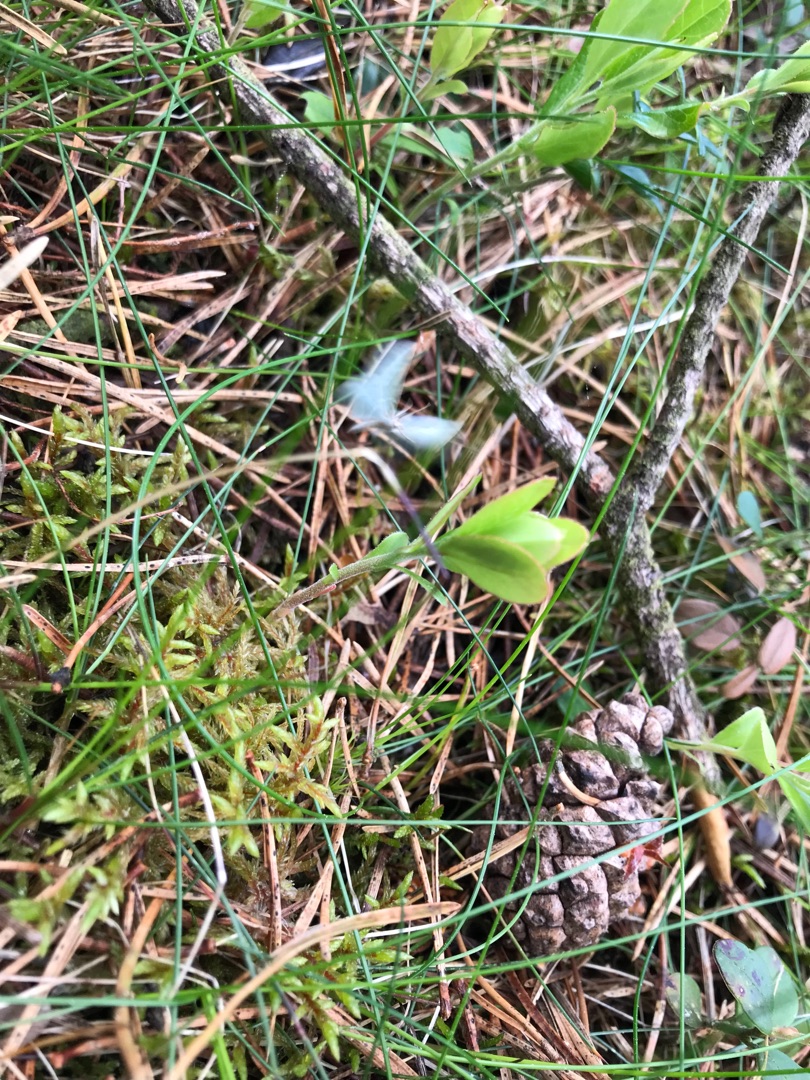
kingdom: Animalia
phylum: Arthropoda
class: Insecta
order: Lepidoptera
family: Lycaenidae
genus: Polyommatus
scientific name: Polyommatus icarus
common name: Almindelig blåfugl
